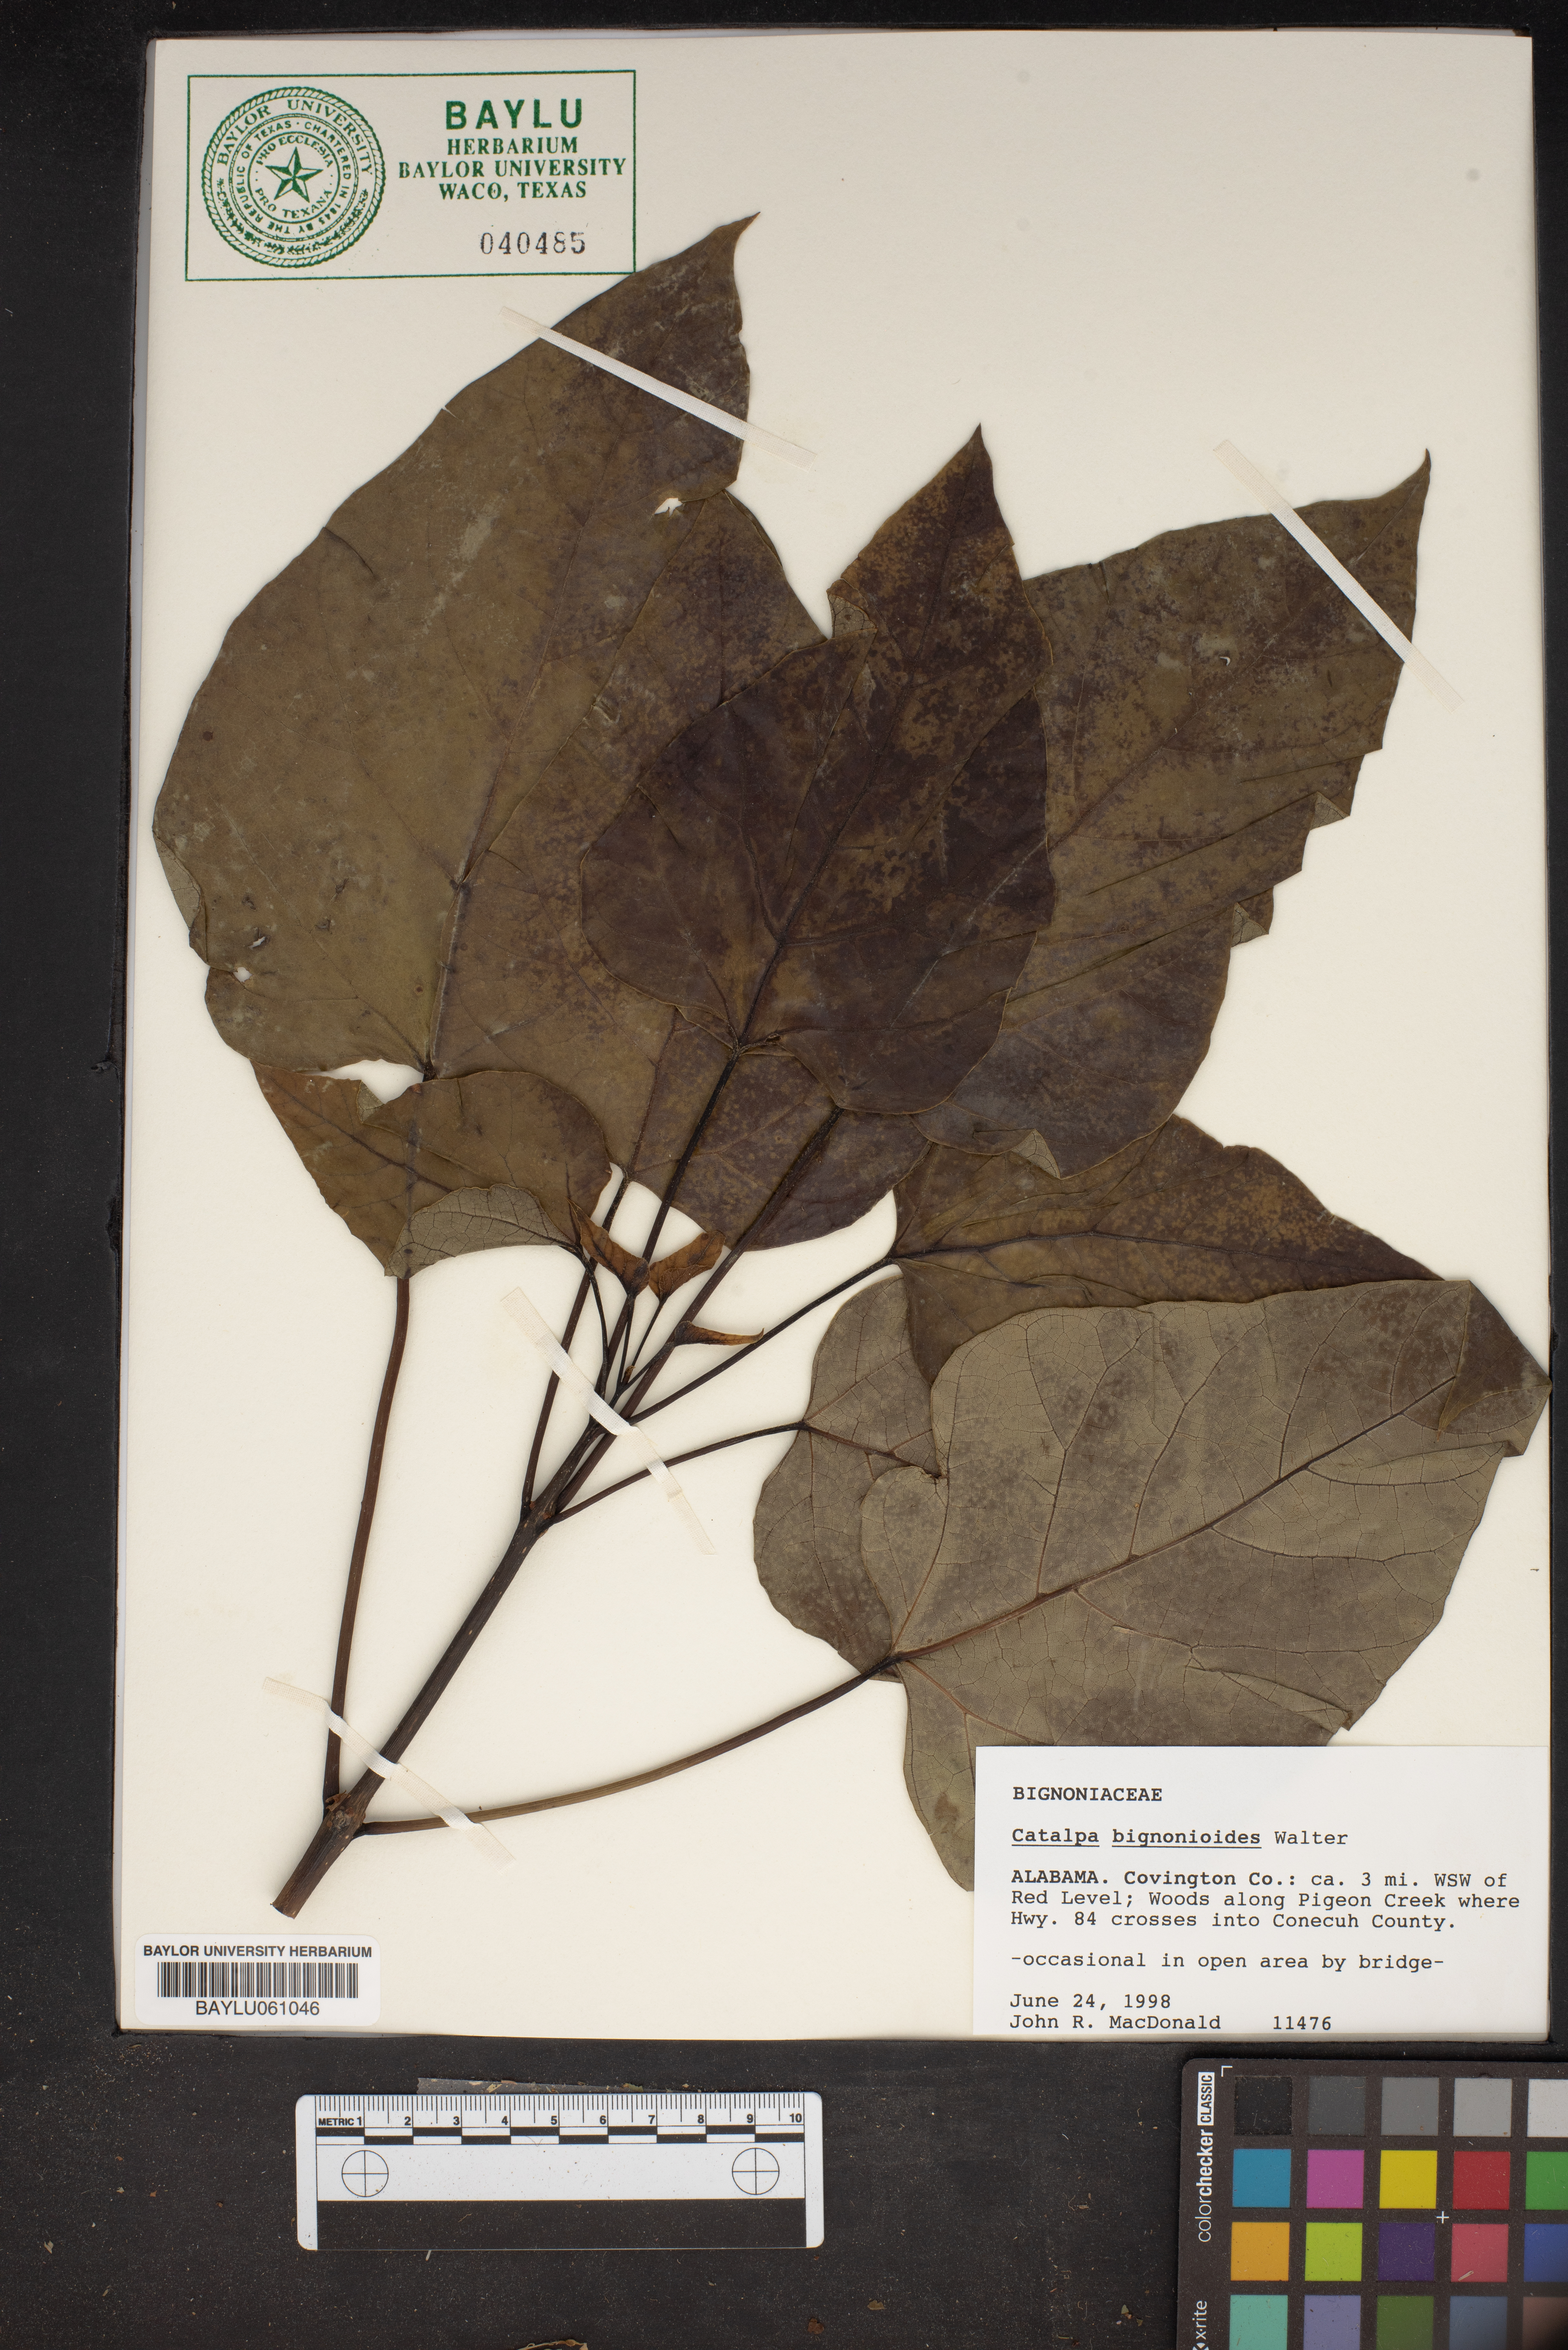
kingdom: Plantae
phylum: Tracheophyta
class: Magnoliopsida
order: Lamiales
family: Bignoniaceae
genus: Catalpa
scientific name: Catalpa bignonioides
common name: Southern catalpa
